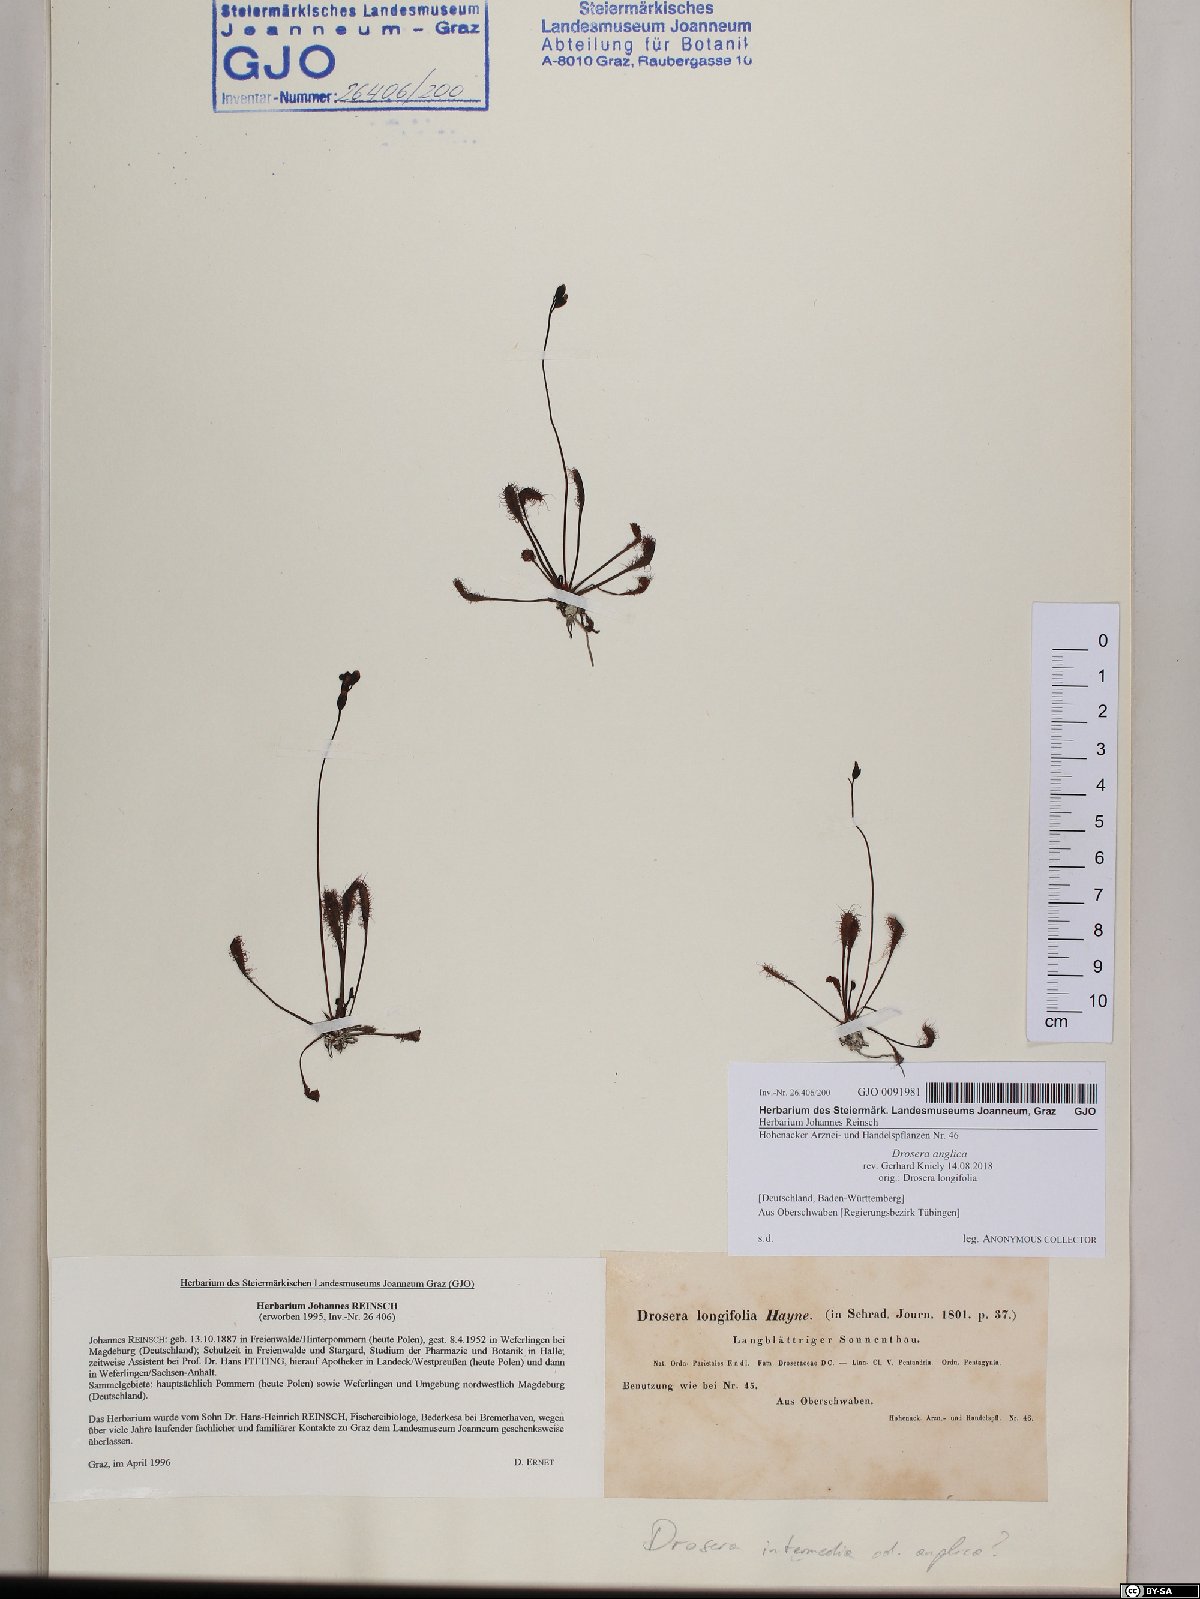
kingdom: Plantae
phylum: Tracheophyta
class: Magnoliopsida
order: Caryophyllales
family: Droseraceae
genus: Drosera
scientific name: Drosera anglica
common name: Great sundew
